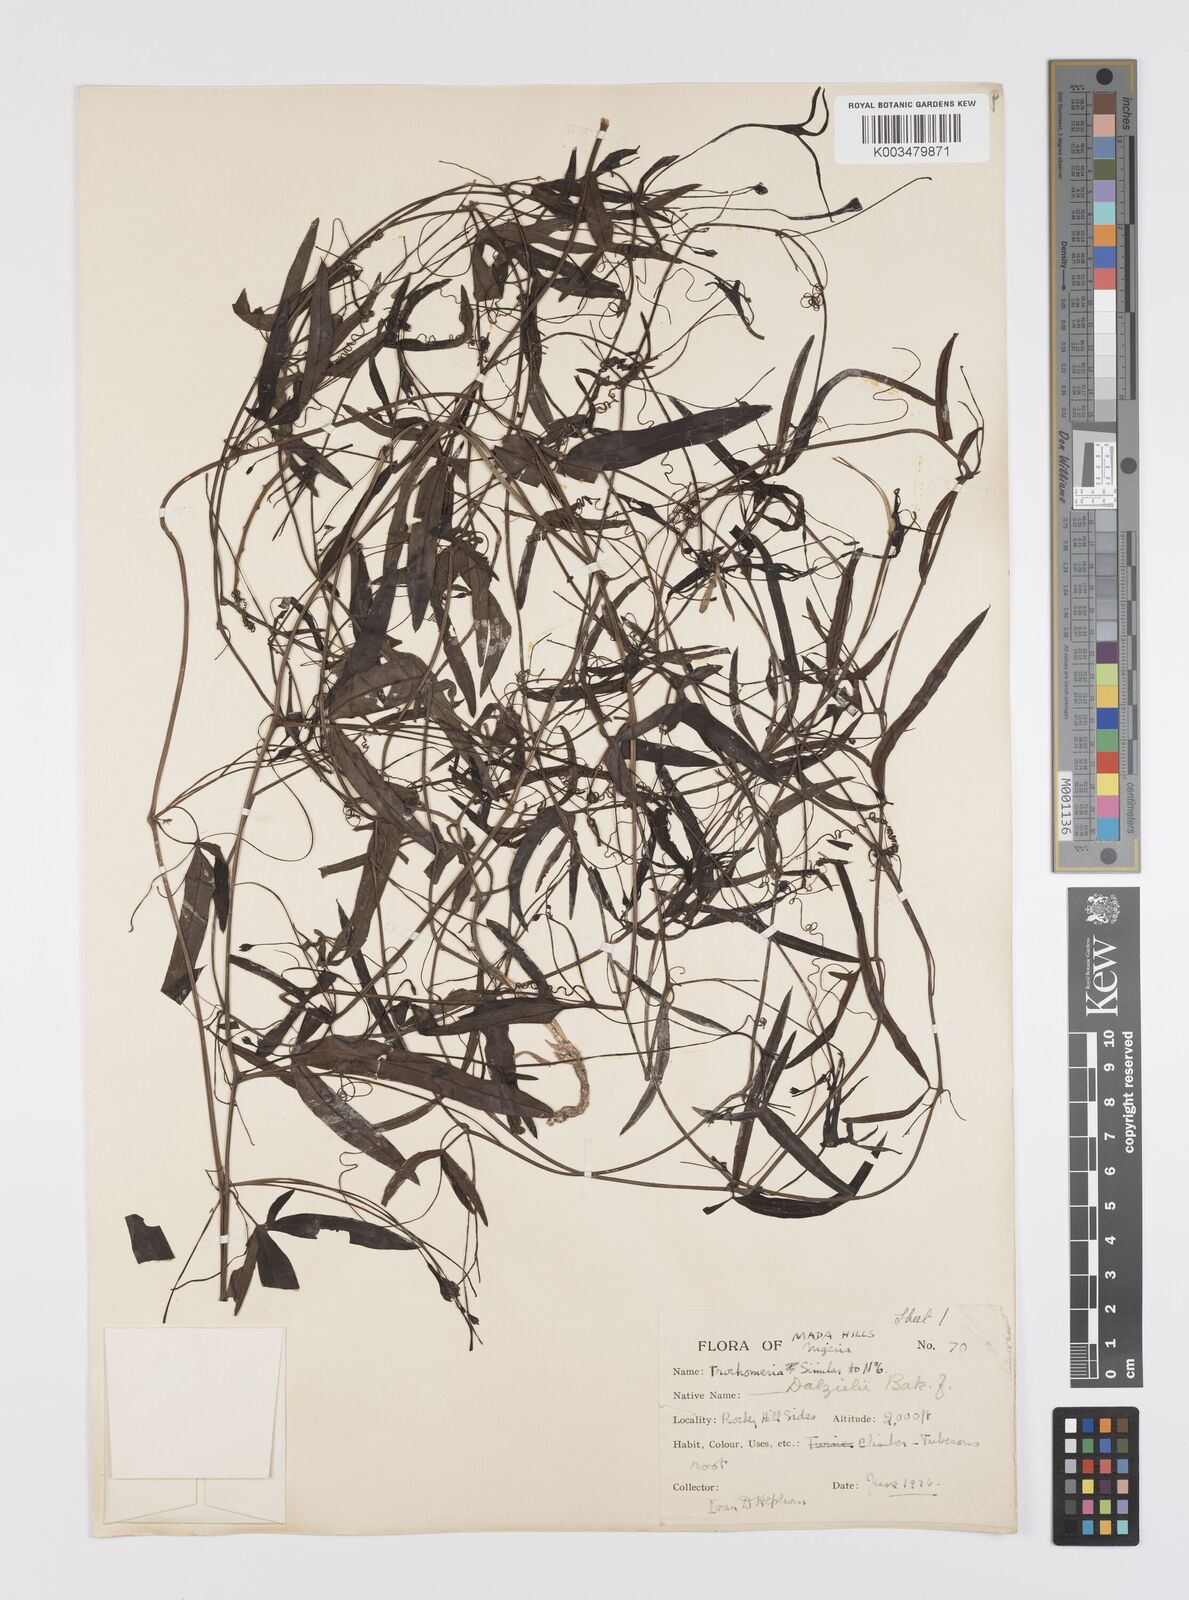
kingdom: Plantae
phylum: Tracheophyta
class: Magnoliopsida
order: Cucurbitales
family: Cucurbitaceae
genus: Trochomeria
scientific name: Trochomeria macrocarpa
